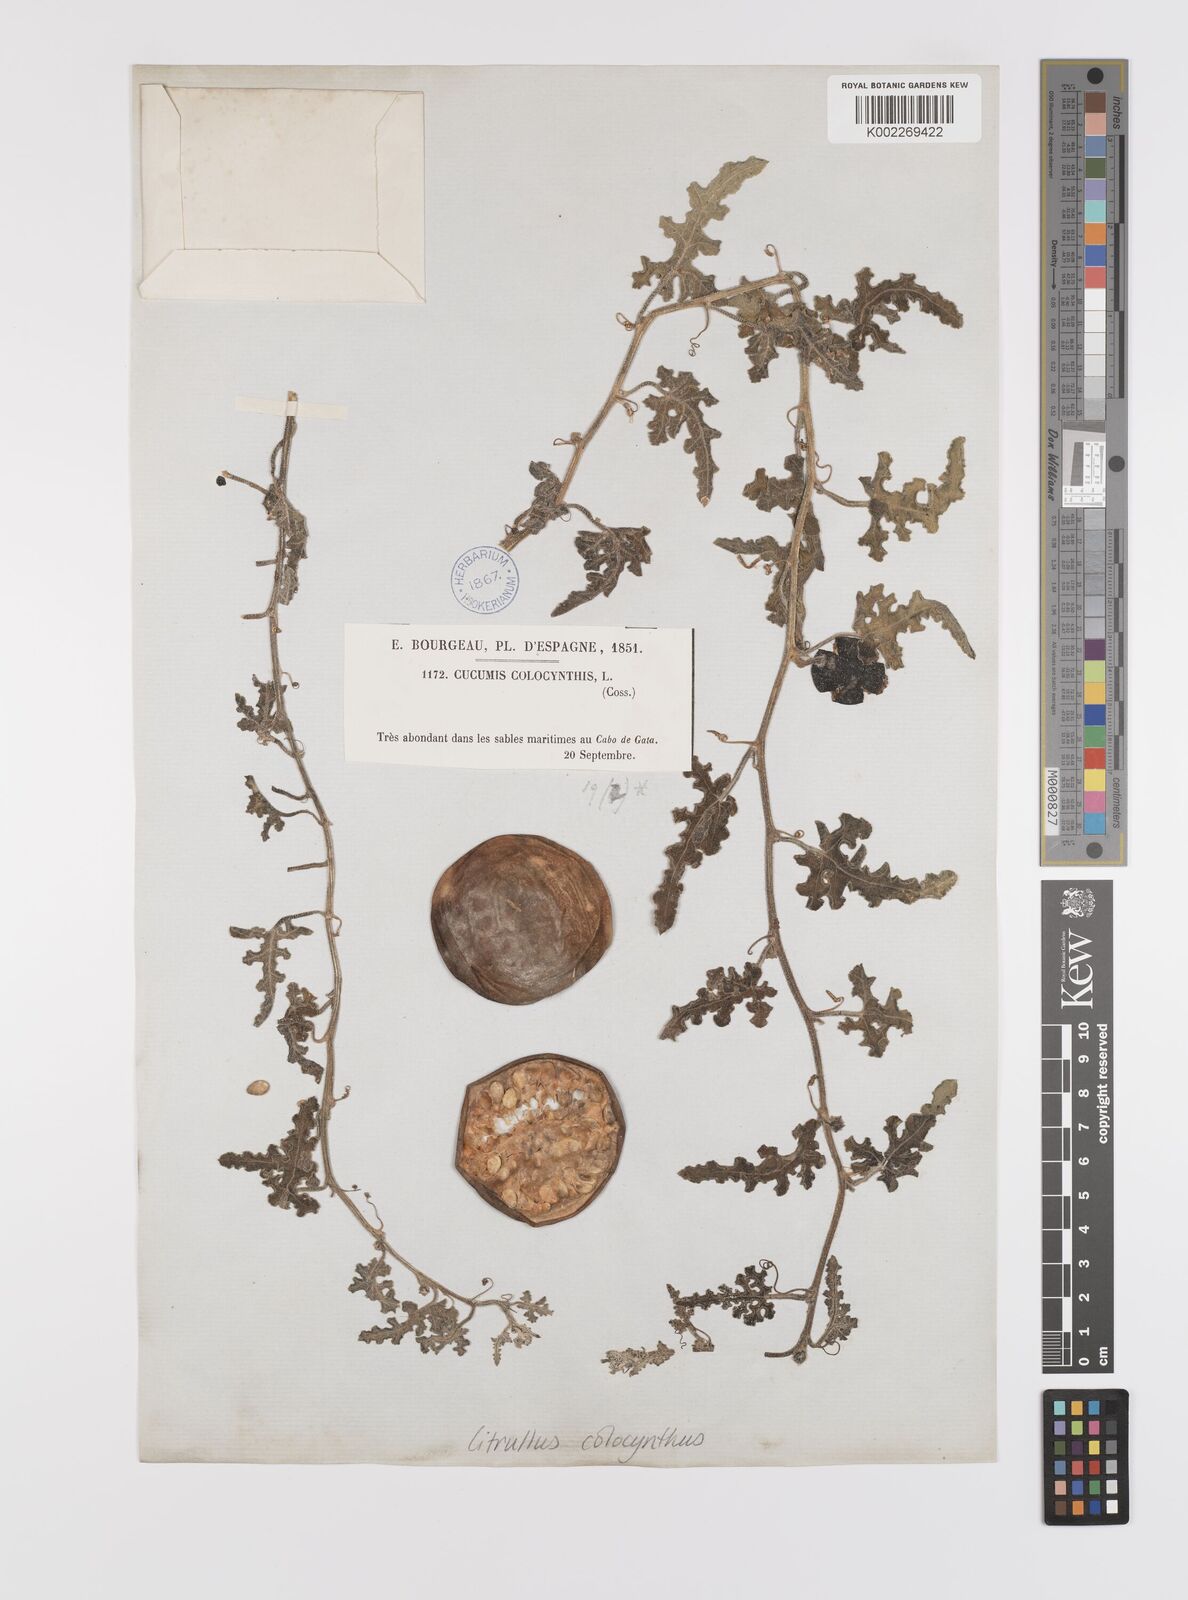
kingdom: Plantae
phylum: Tracheophyta
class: Magnoliopsida
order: Cucurbitales
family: Cucurbitaceae
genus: Citrullus
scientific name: Citrullus colocynthis
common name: Colocynth
